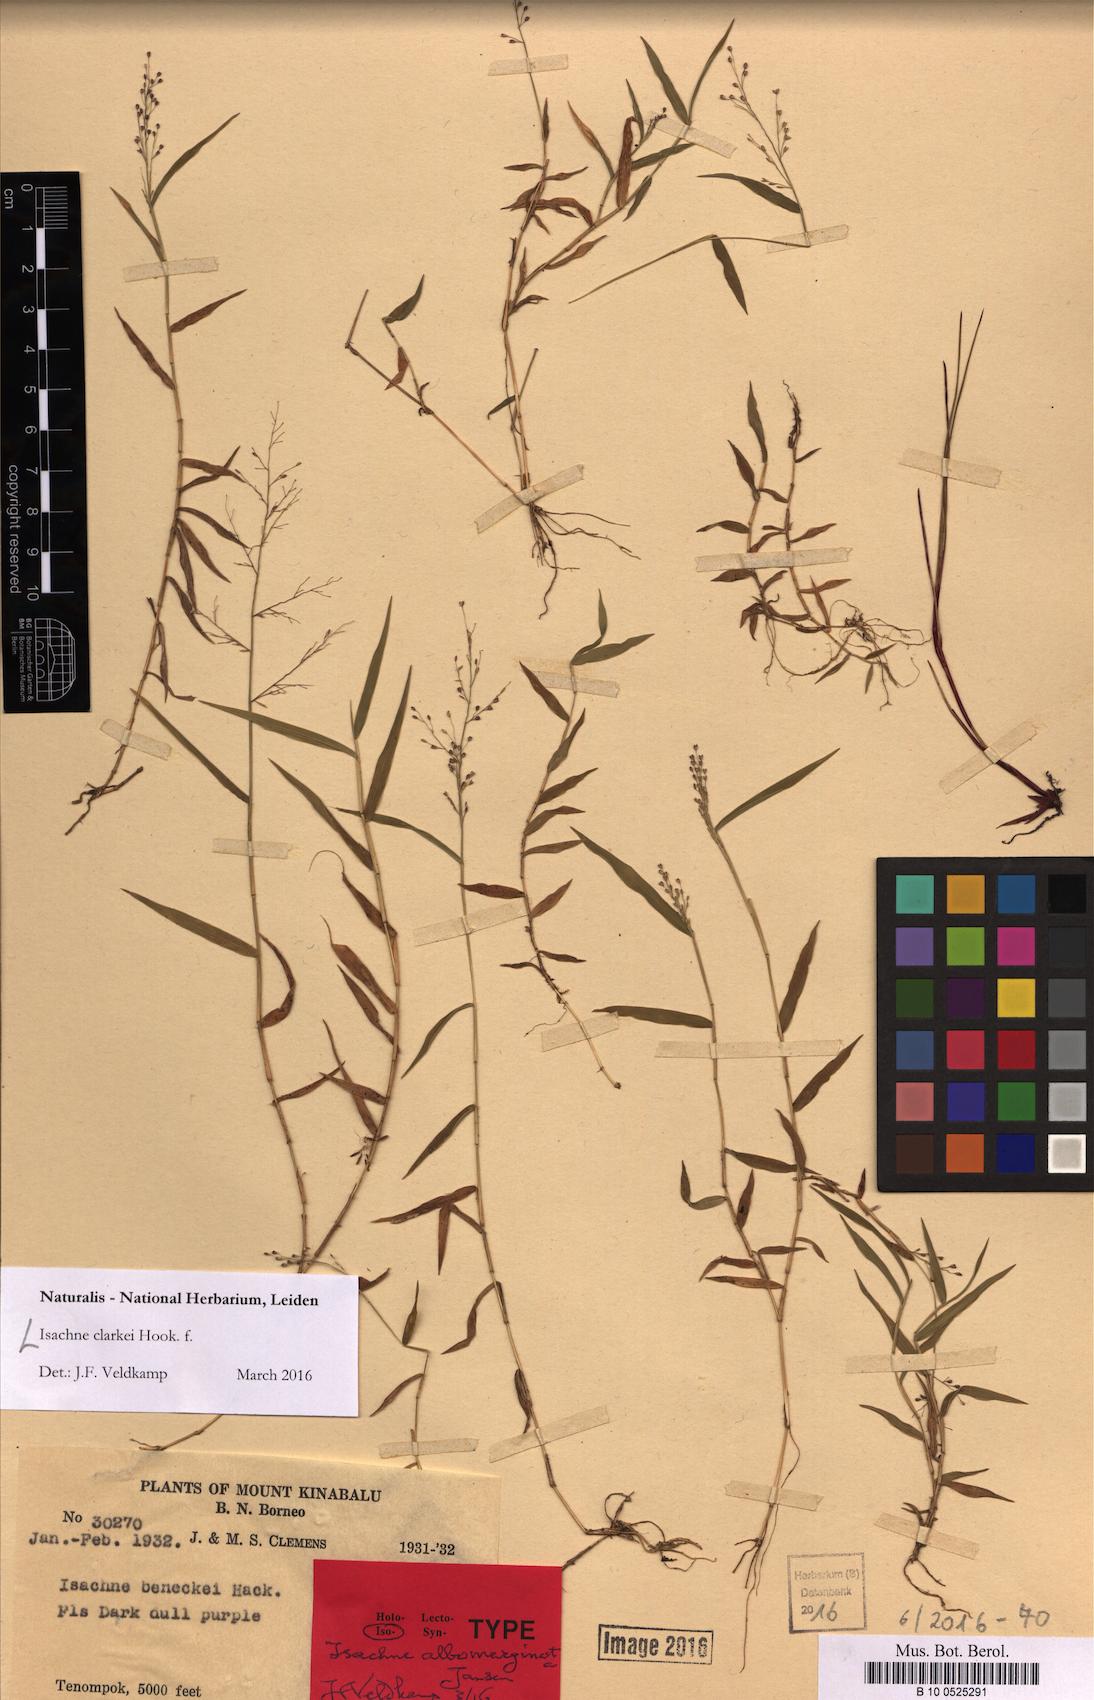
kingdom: Plantae
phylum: Tracheophyta
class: Liliopsida
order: Poales
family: Poaceae
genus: Isachne
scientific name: Isachne clarkei
